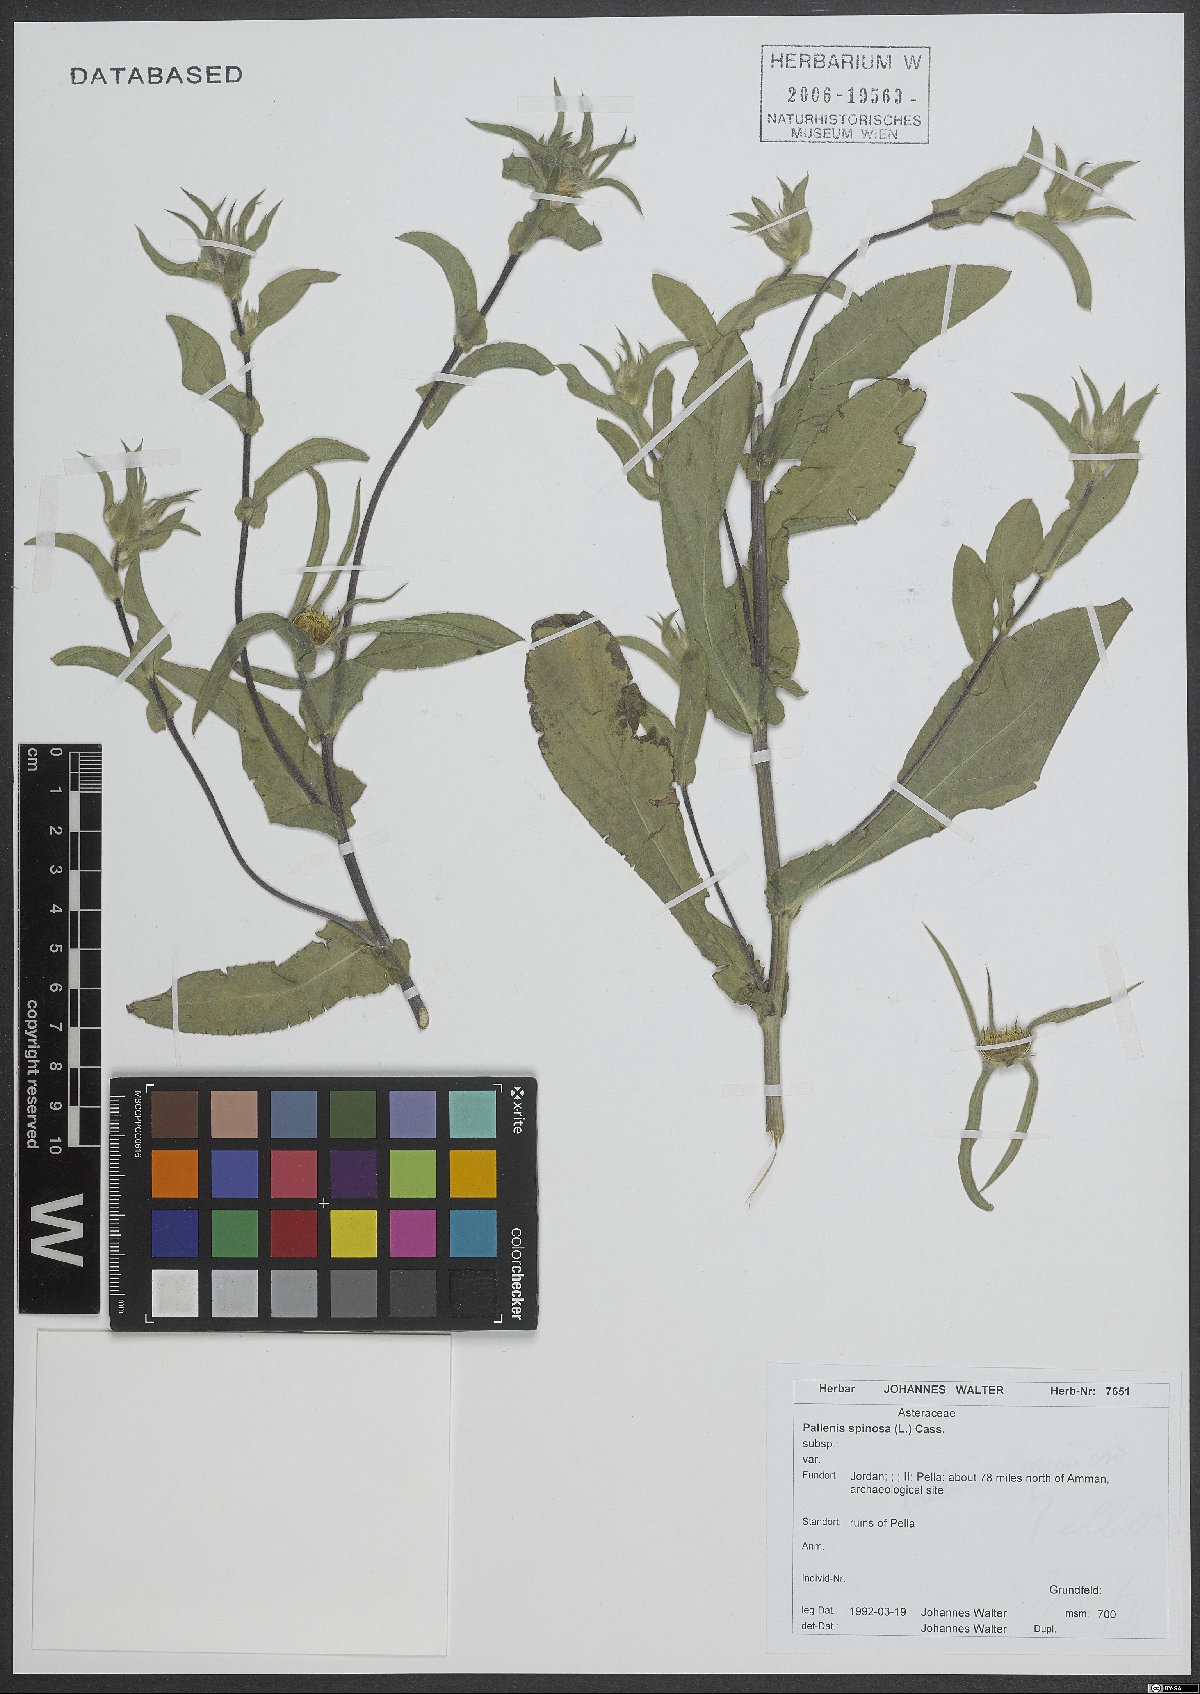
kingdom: Plantae
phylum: Tracheophyta
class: Magnoliopsida
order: Asterales
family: Asteraceae
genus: Pallenis
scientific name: Pallenis spinosa
